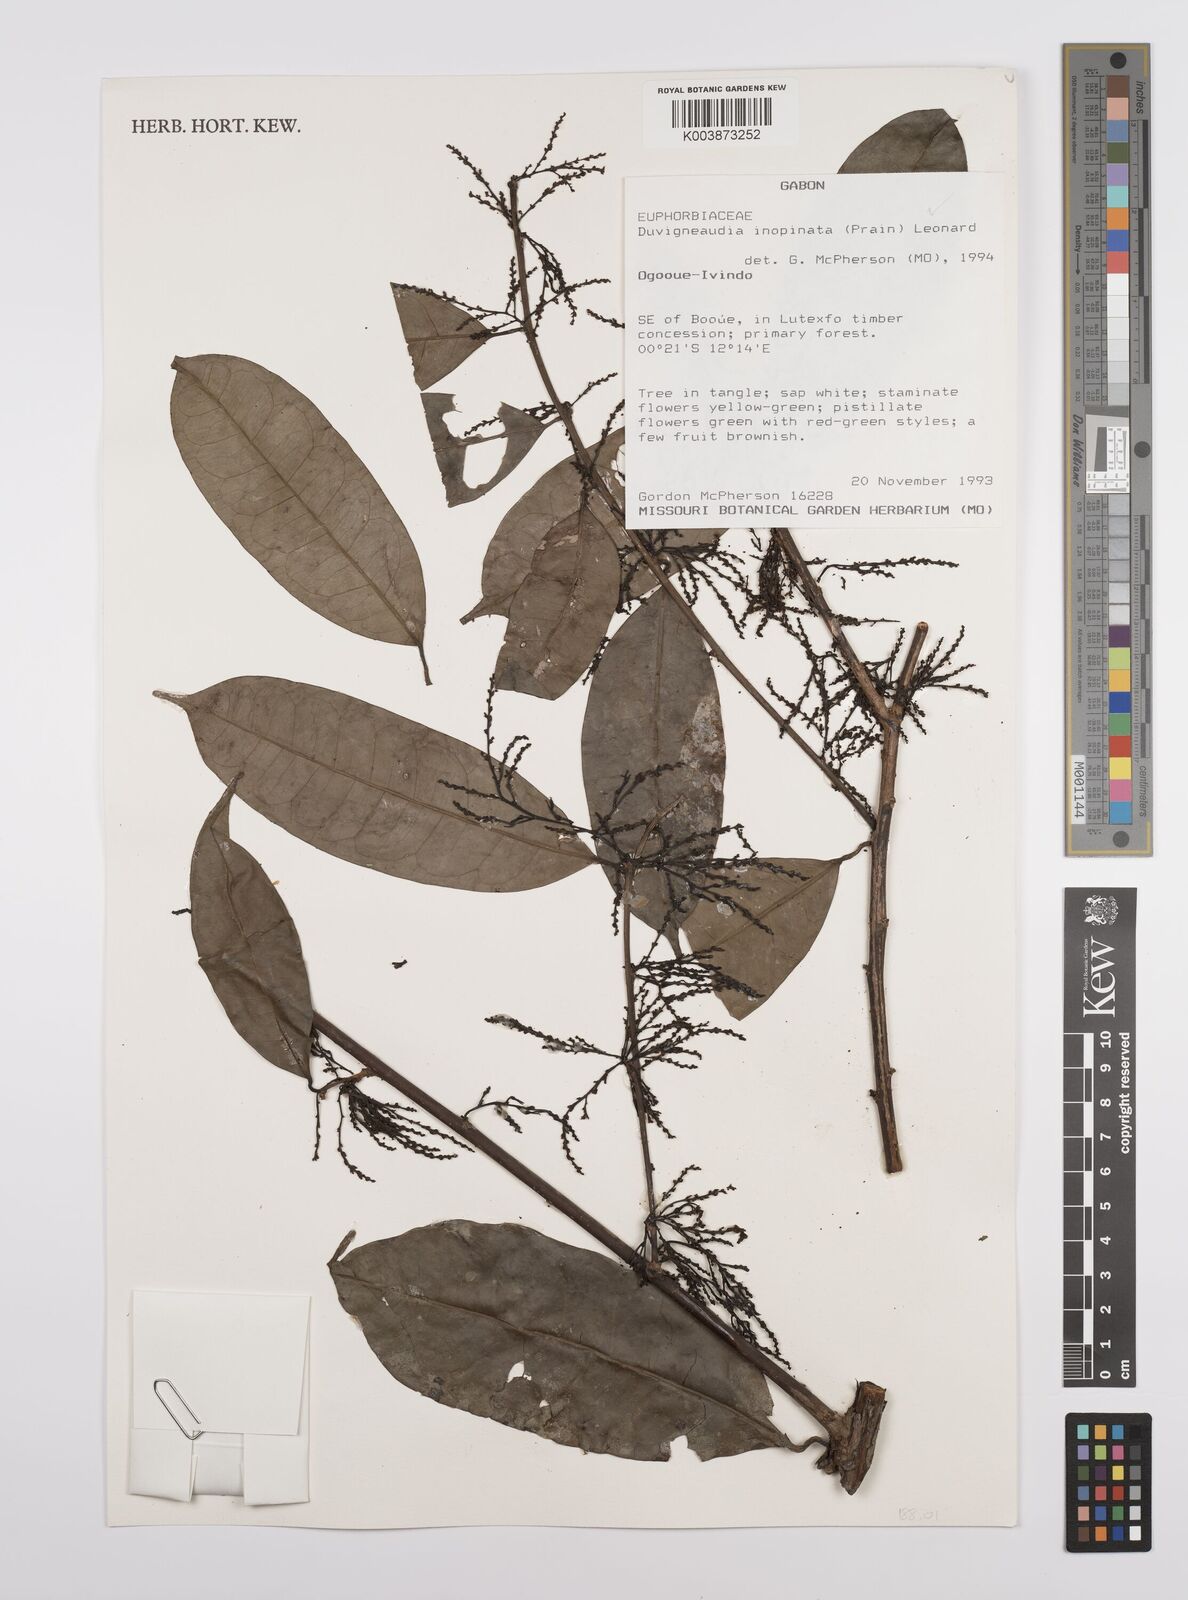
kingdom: Plantae
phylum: Tracheophyta
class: Magnoliopsida
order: Malpighiales
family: Euphorbiaceae
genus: Gymnanthes
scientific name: Gymnanthes inopinata
